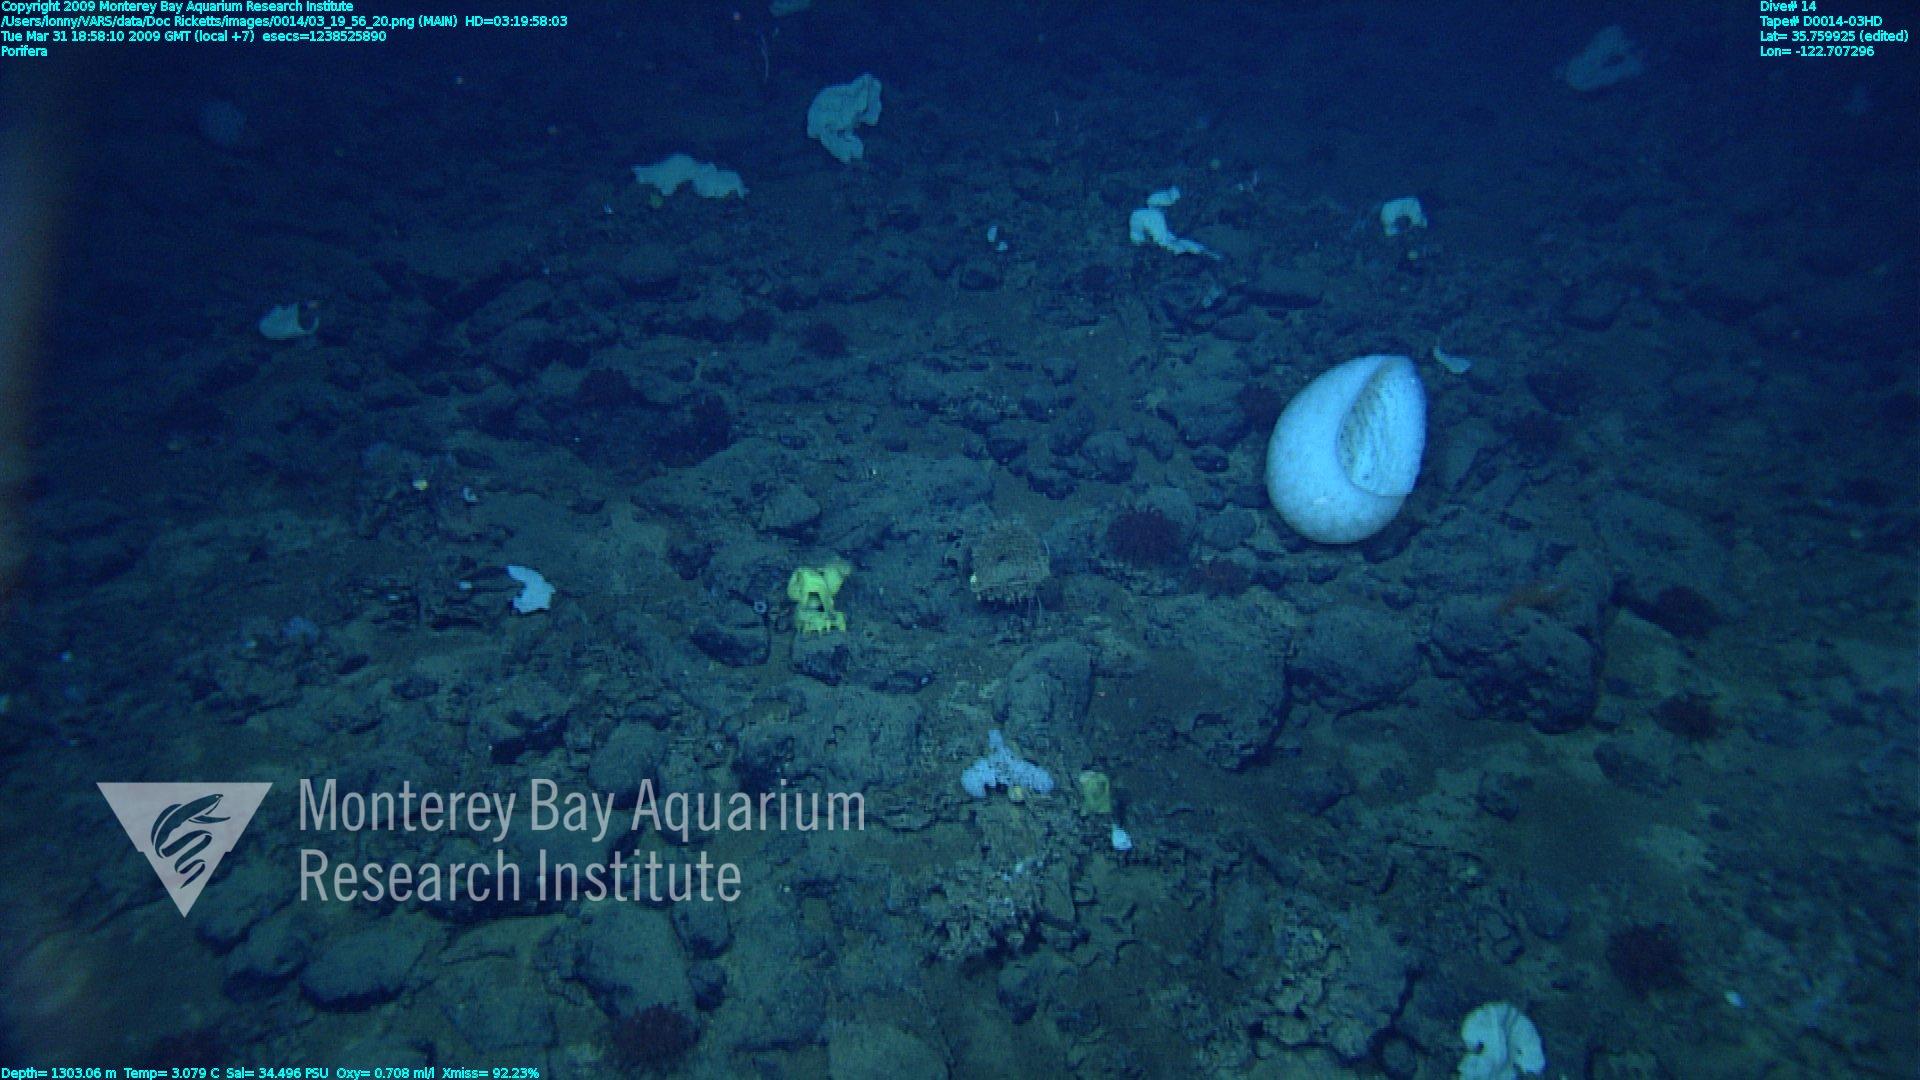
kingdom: Animalia
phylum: Porifera
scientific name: Porifera
